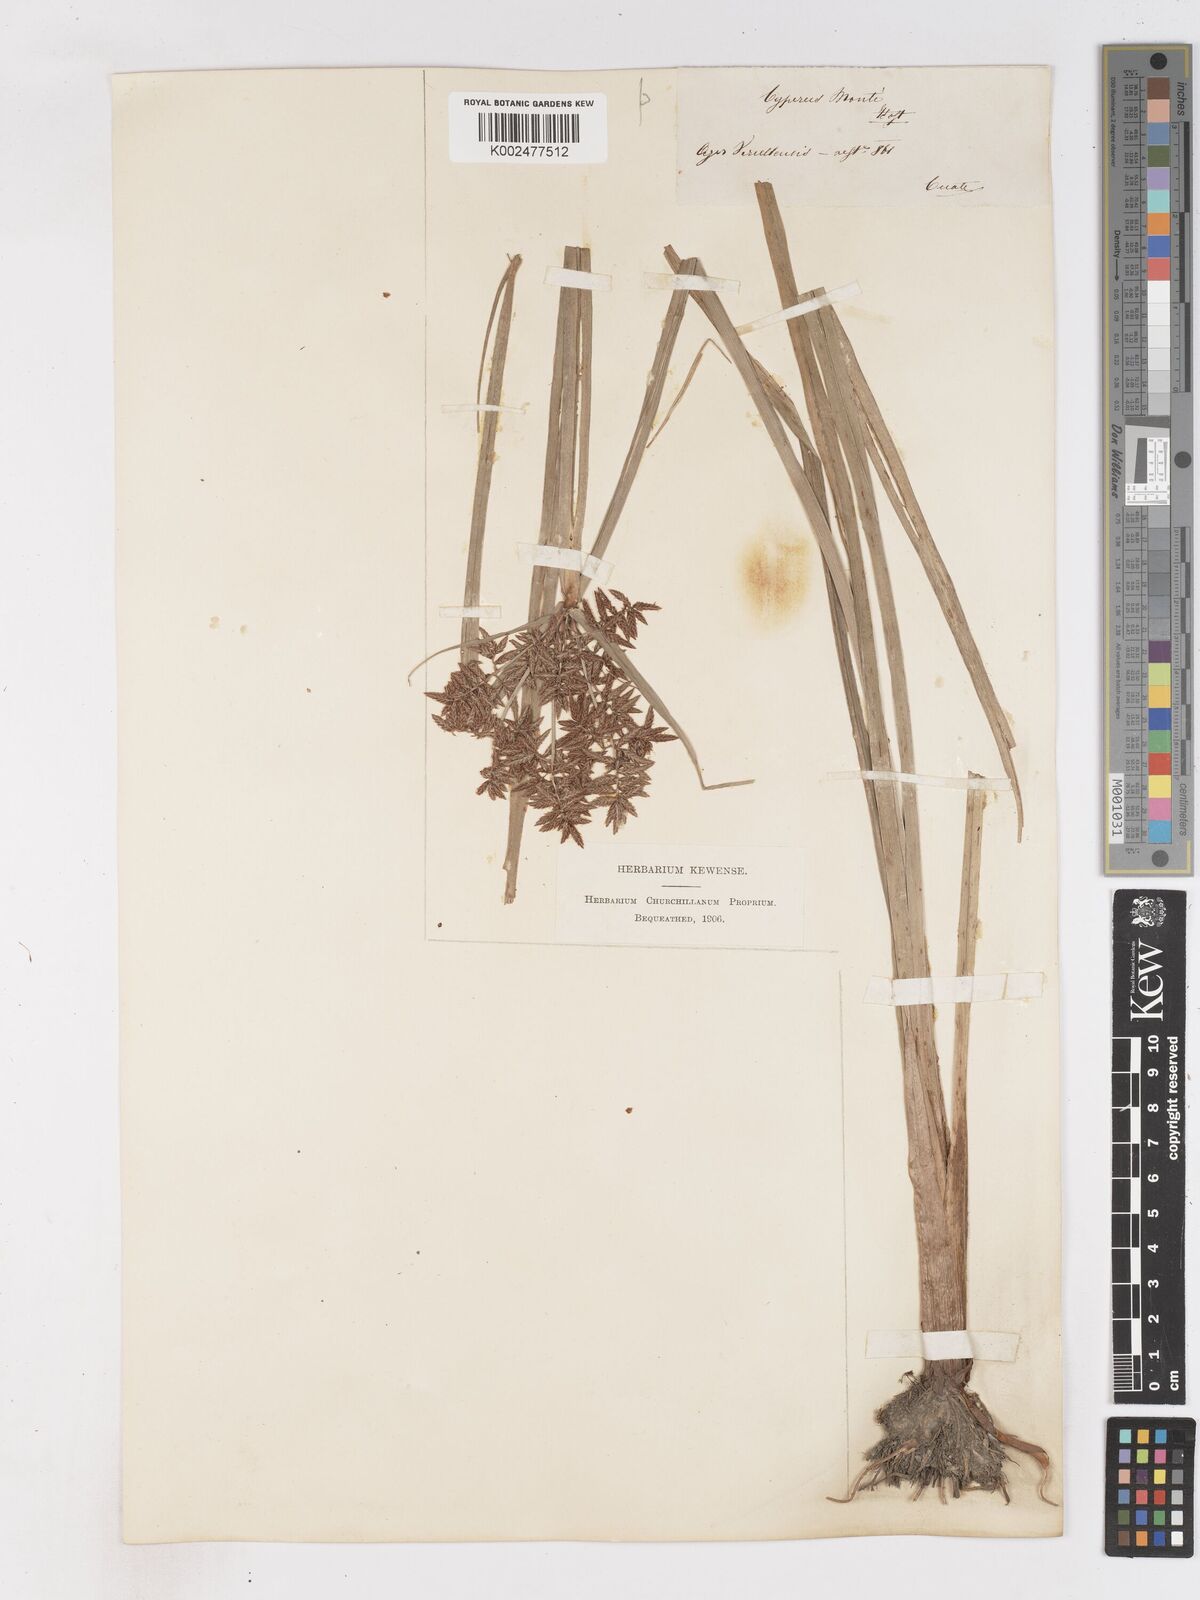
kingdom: Plantae
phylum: Tracheophyta
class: Liliopsida
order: Poales
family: Cyperaceae
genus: Cyperus
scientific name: Cyperus serotinus
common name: Tidalmarsh flatsedge
